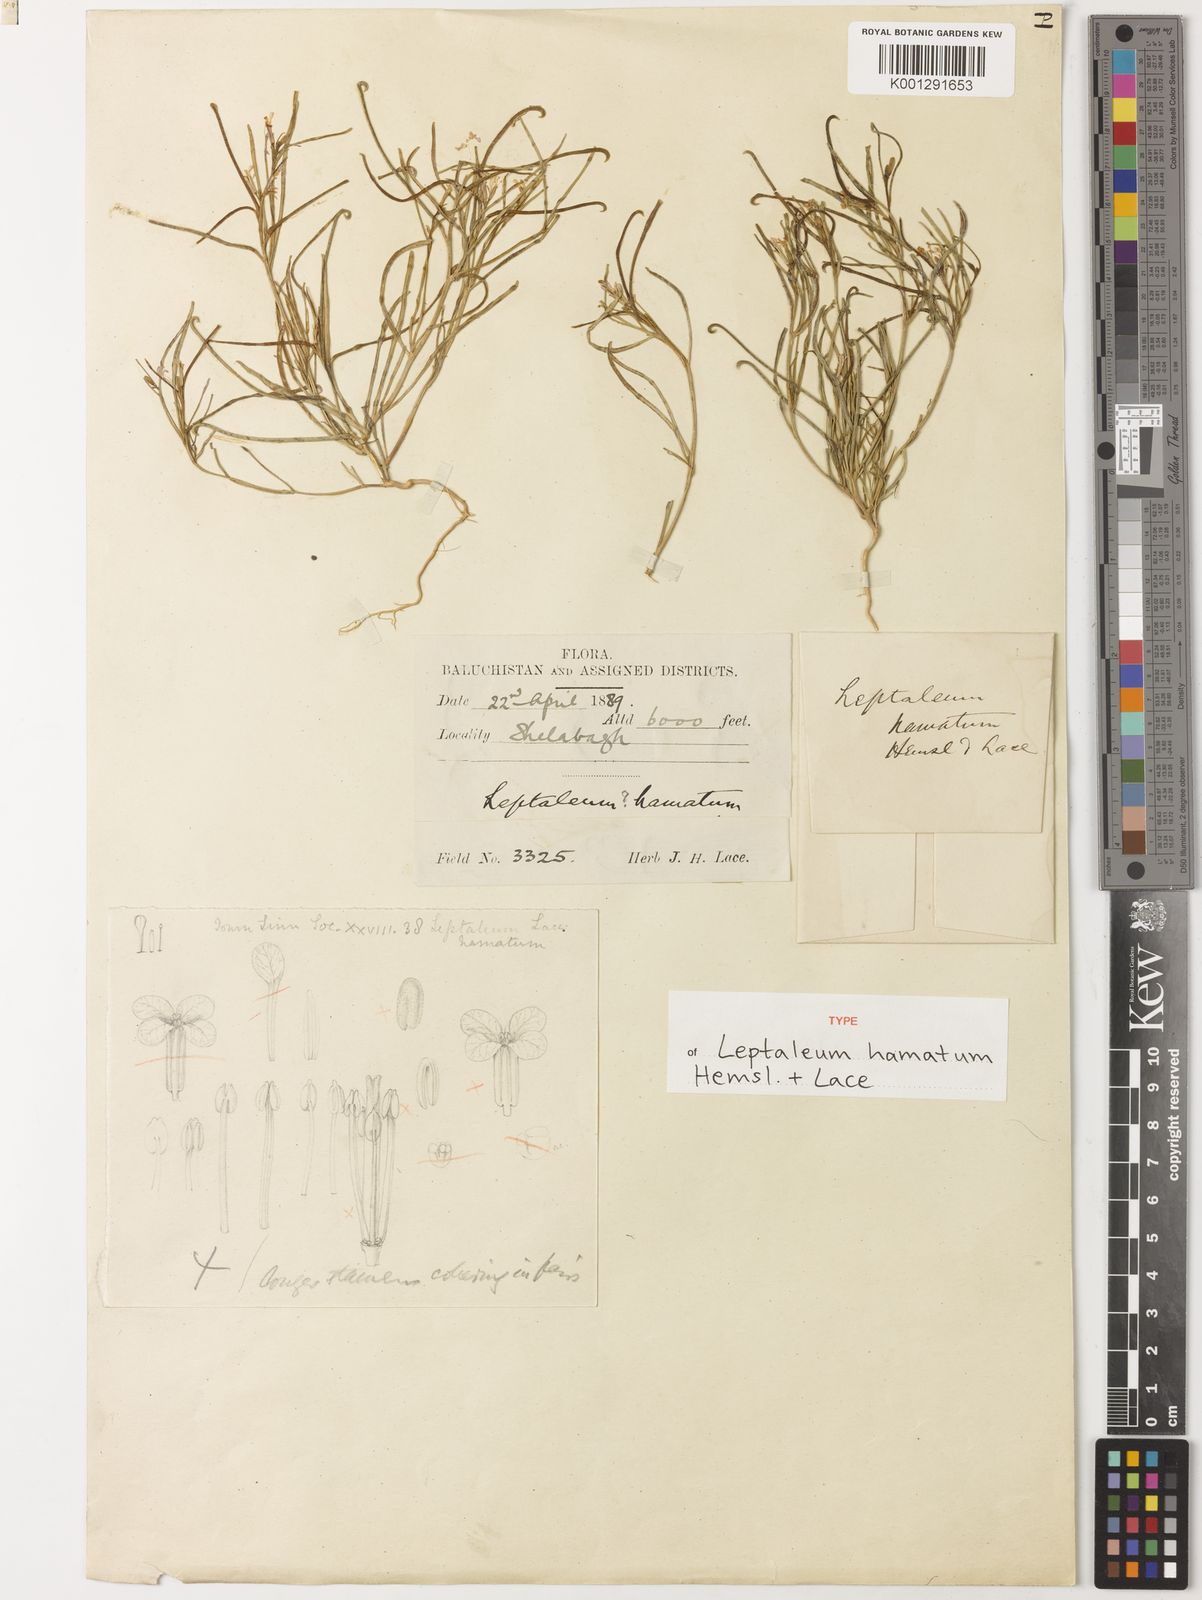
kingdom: Plantae
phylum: Tracheophyta
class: Magnoliopsida
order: Brassicales
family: Brassicaceae
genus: Leptaleum
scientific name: Leptaleum filifolium
